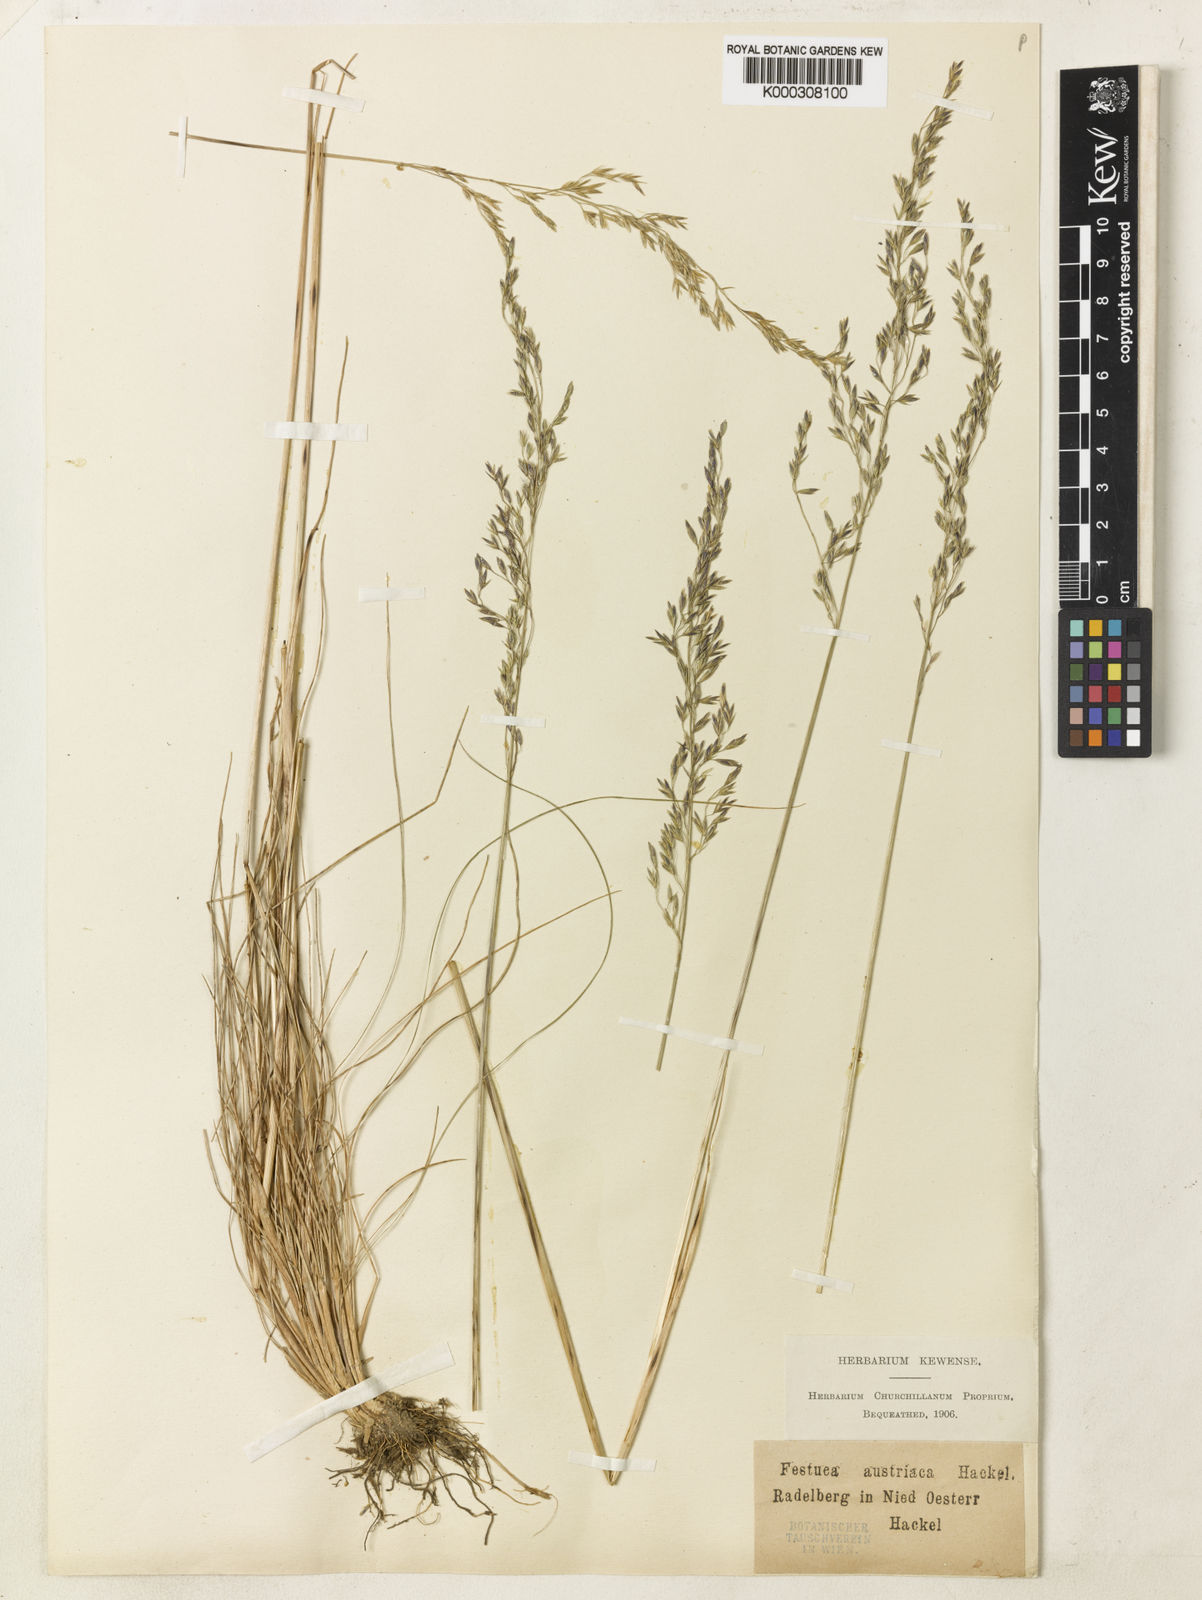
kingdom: Plantae
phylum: Tracheophyta
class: Liliopsida
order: Poales
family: Poaceae
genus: Festuca
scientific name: Festuca amethystina
